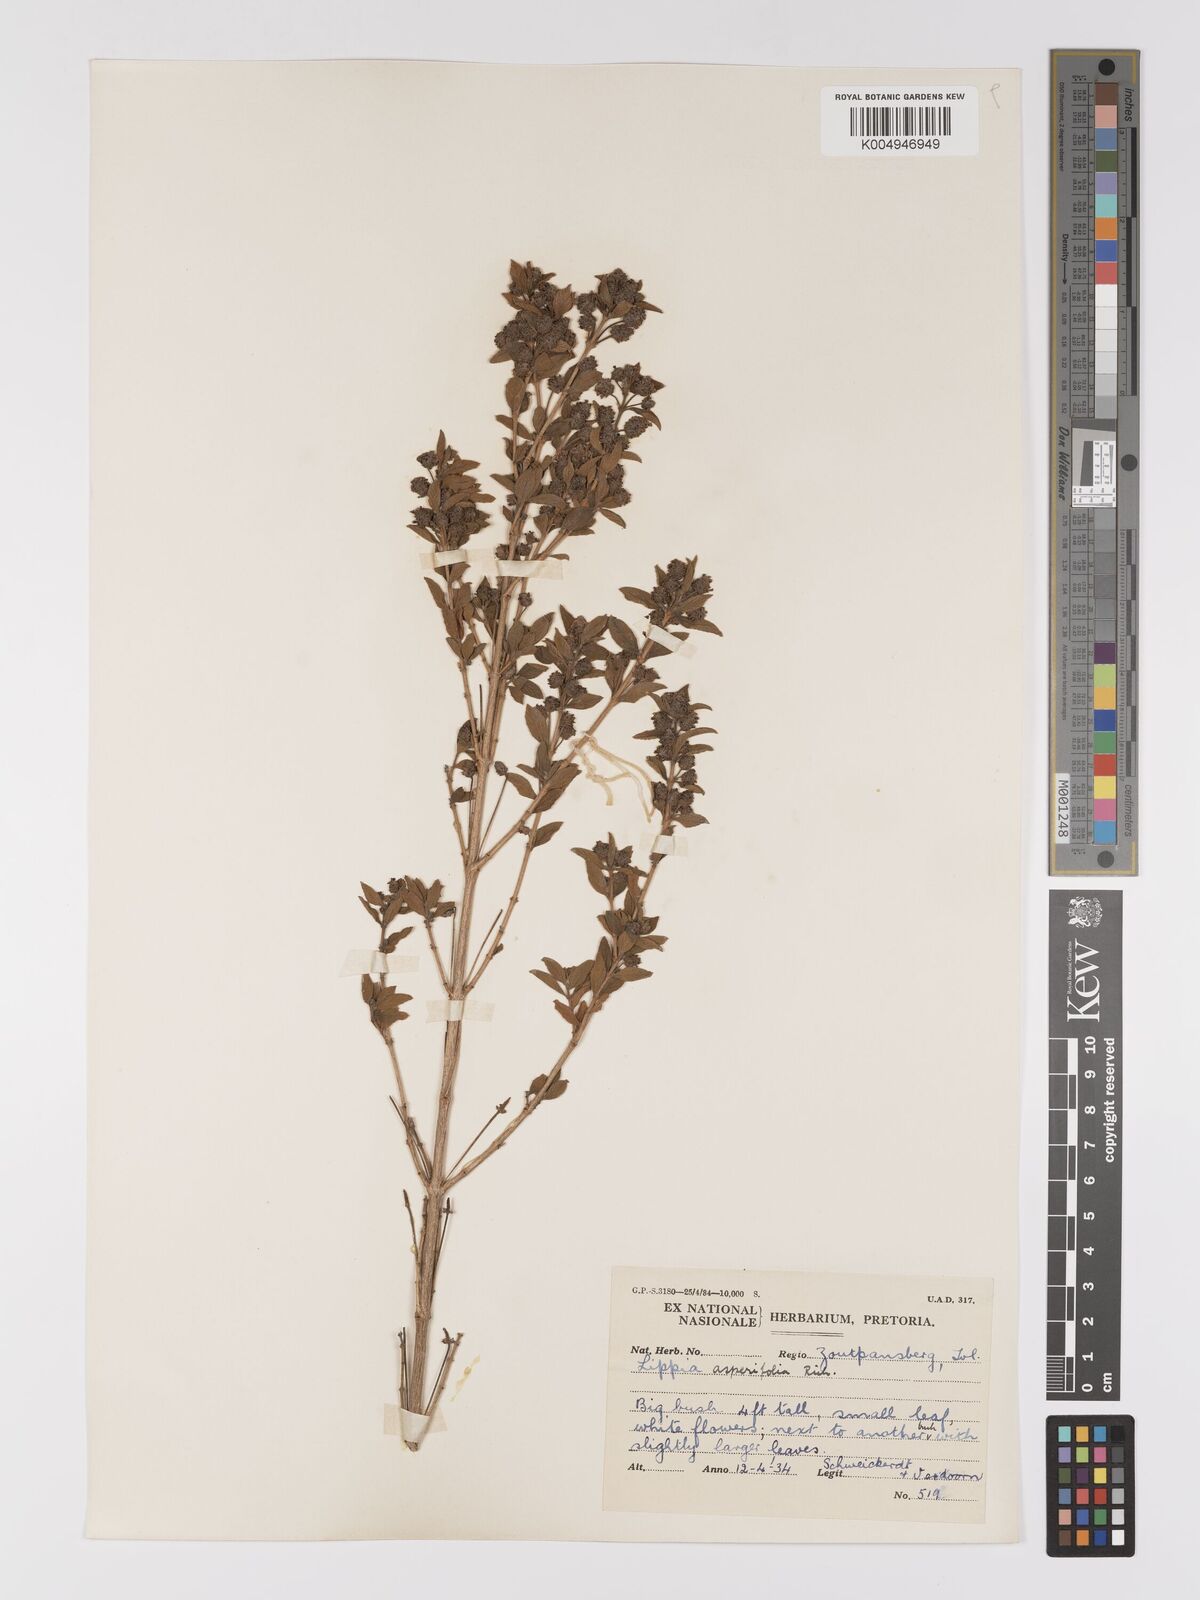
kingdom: Plantae
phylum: Tracheophyta
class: Magnoliopsida
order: Lamiales
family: Verbenaceae
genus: Lippia
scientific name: Lippia
